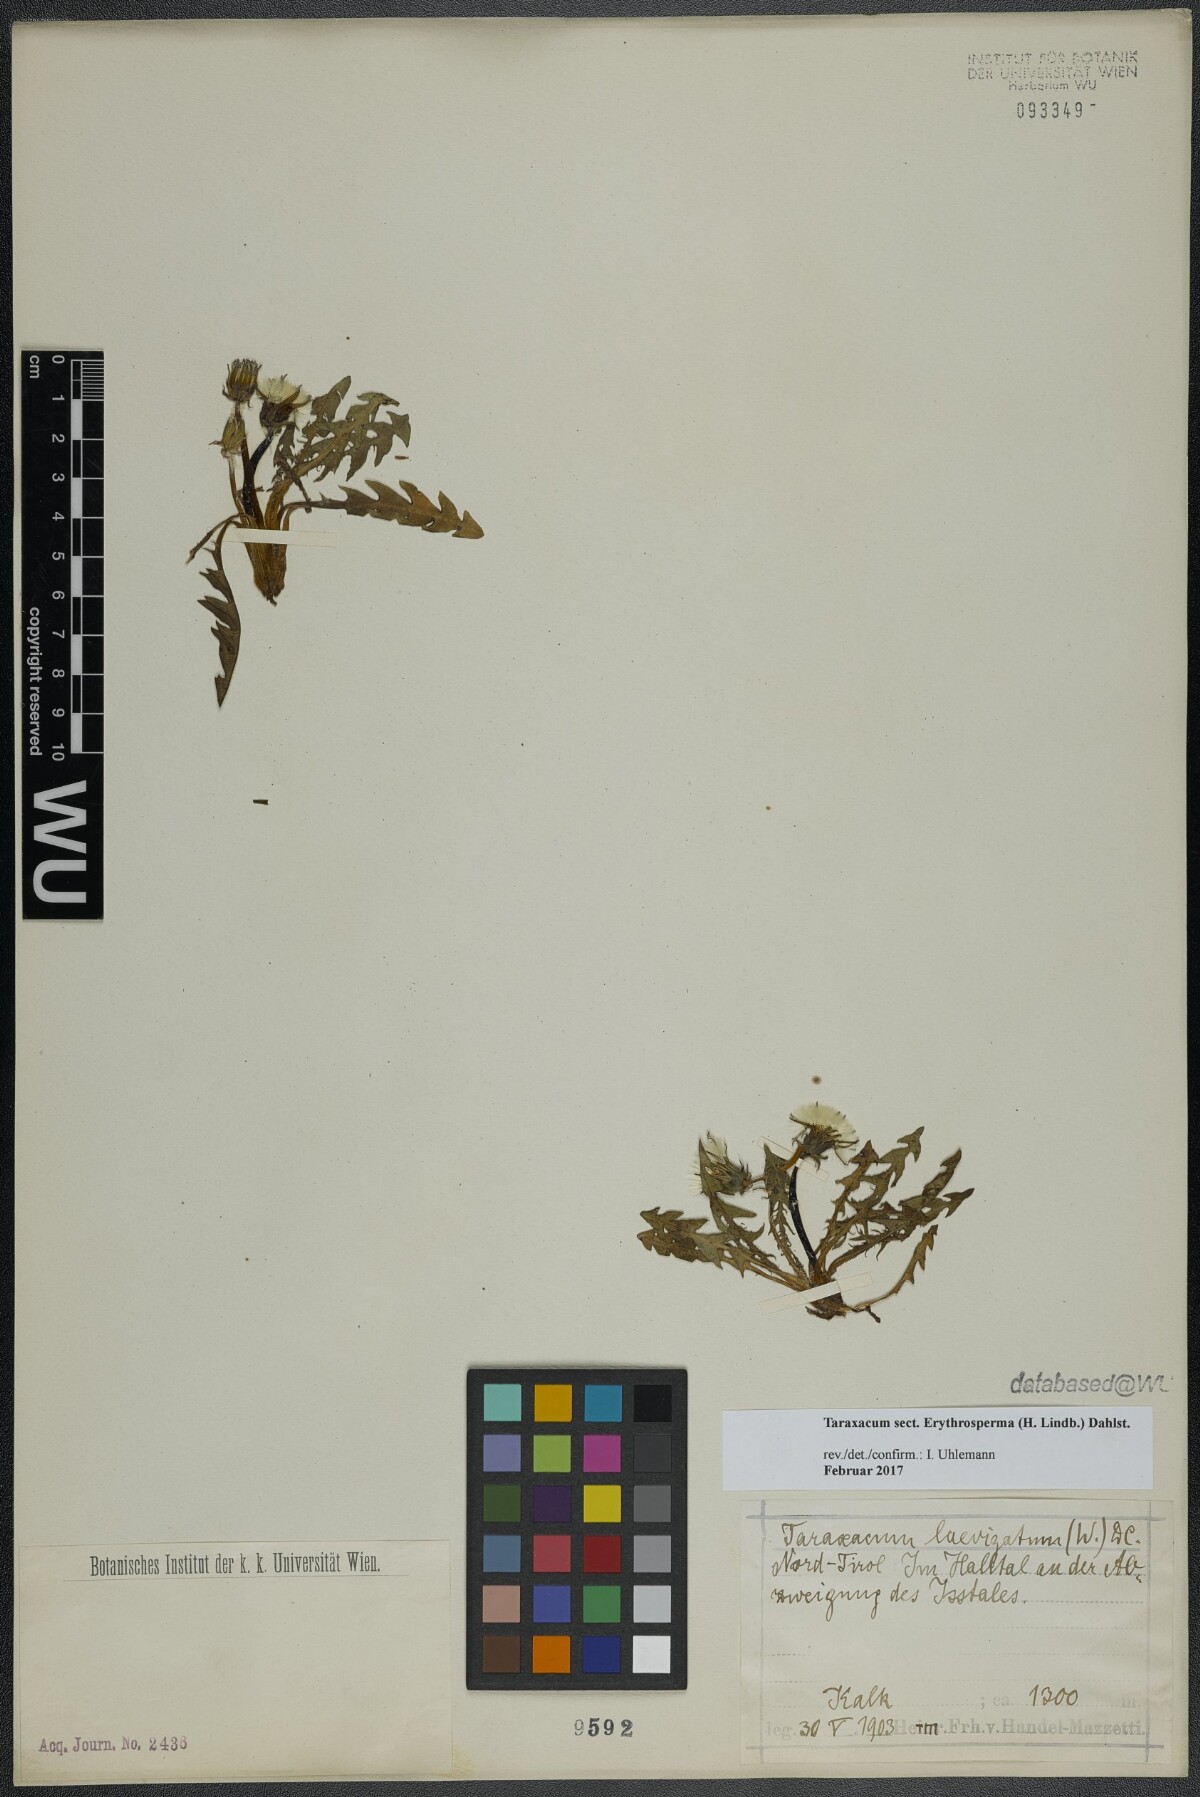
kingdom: Plantae
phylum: Tracheophyta
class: Magnoliopsida
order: Asterales
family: Asteraceae
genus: Taraxacum
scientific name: Taraxacum
